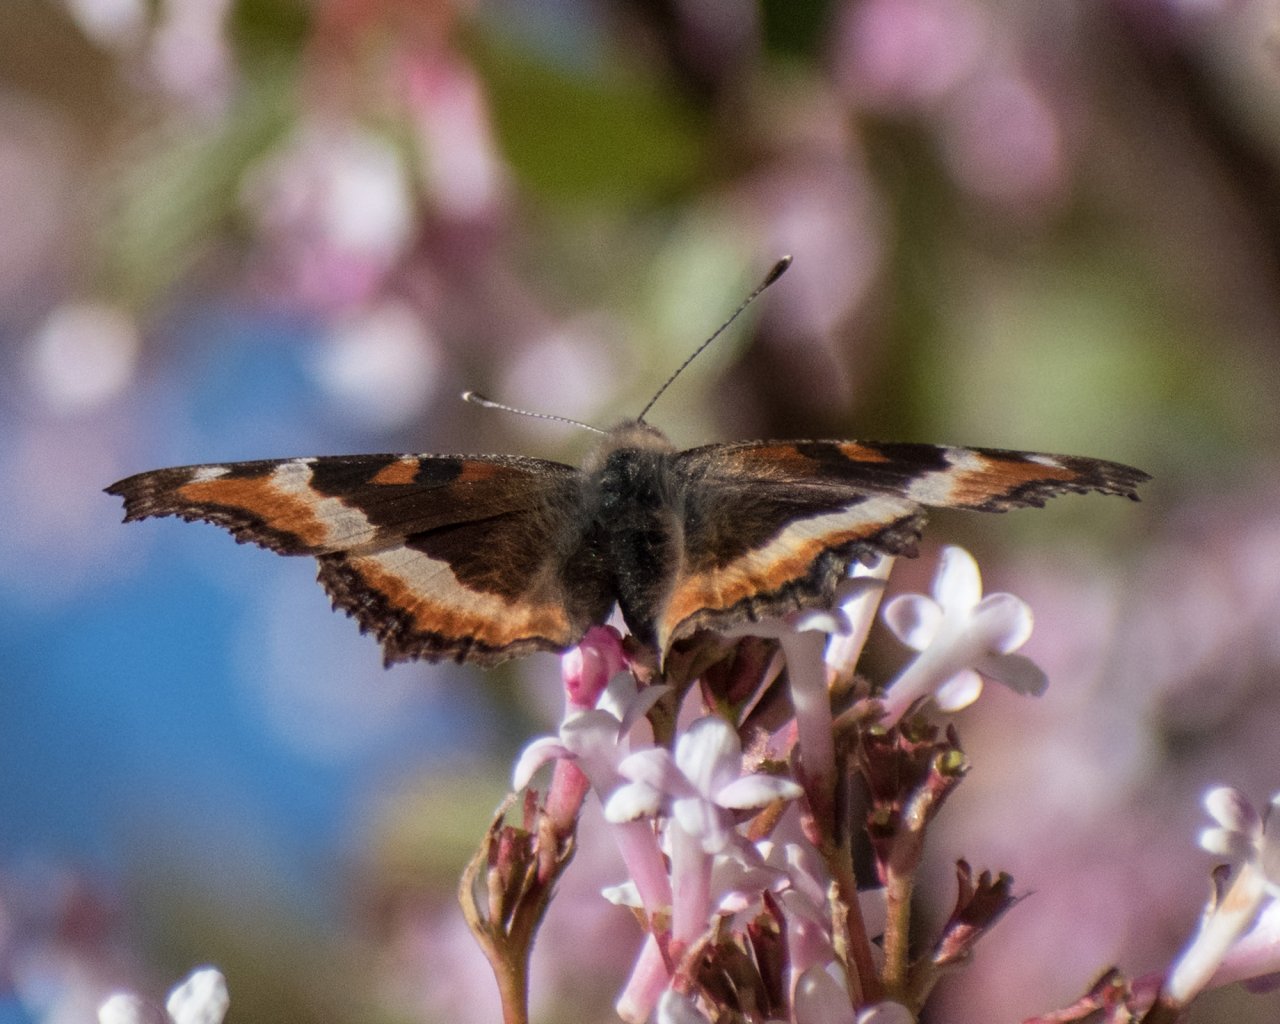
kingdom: Animalia
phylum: Arthropoda
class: Insecta
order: Lepidoptera
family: Nymphalidae
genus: Aglais
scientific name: Aglais milberti
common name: Milbert's Tortoiseshell
